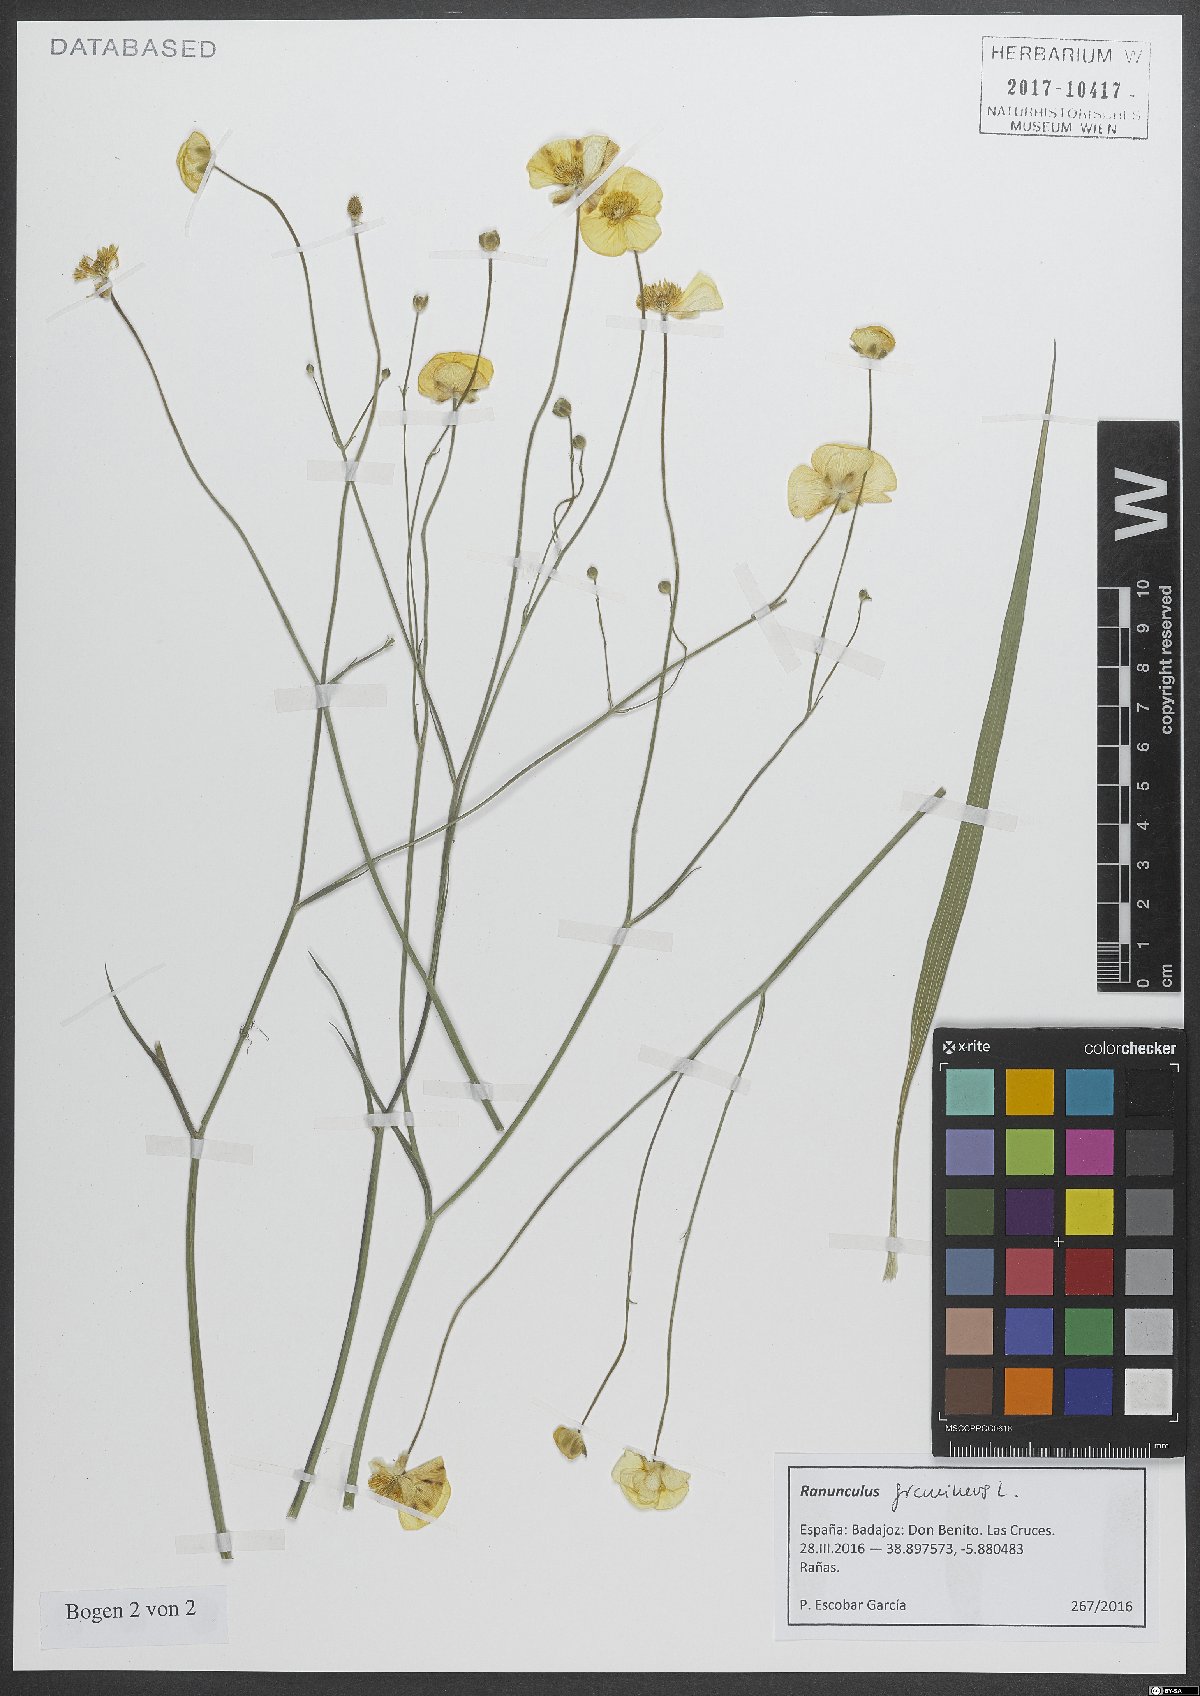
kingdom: Plantae
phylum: Tracheophyta
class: Magnoliopsida
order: Ranunculales
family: Ranunculaceae
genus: Ranunculus
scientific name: Ranunculus gramineus
